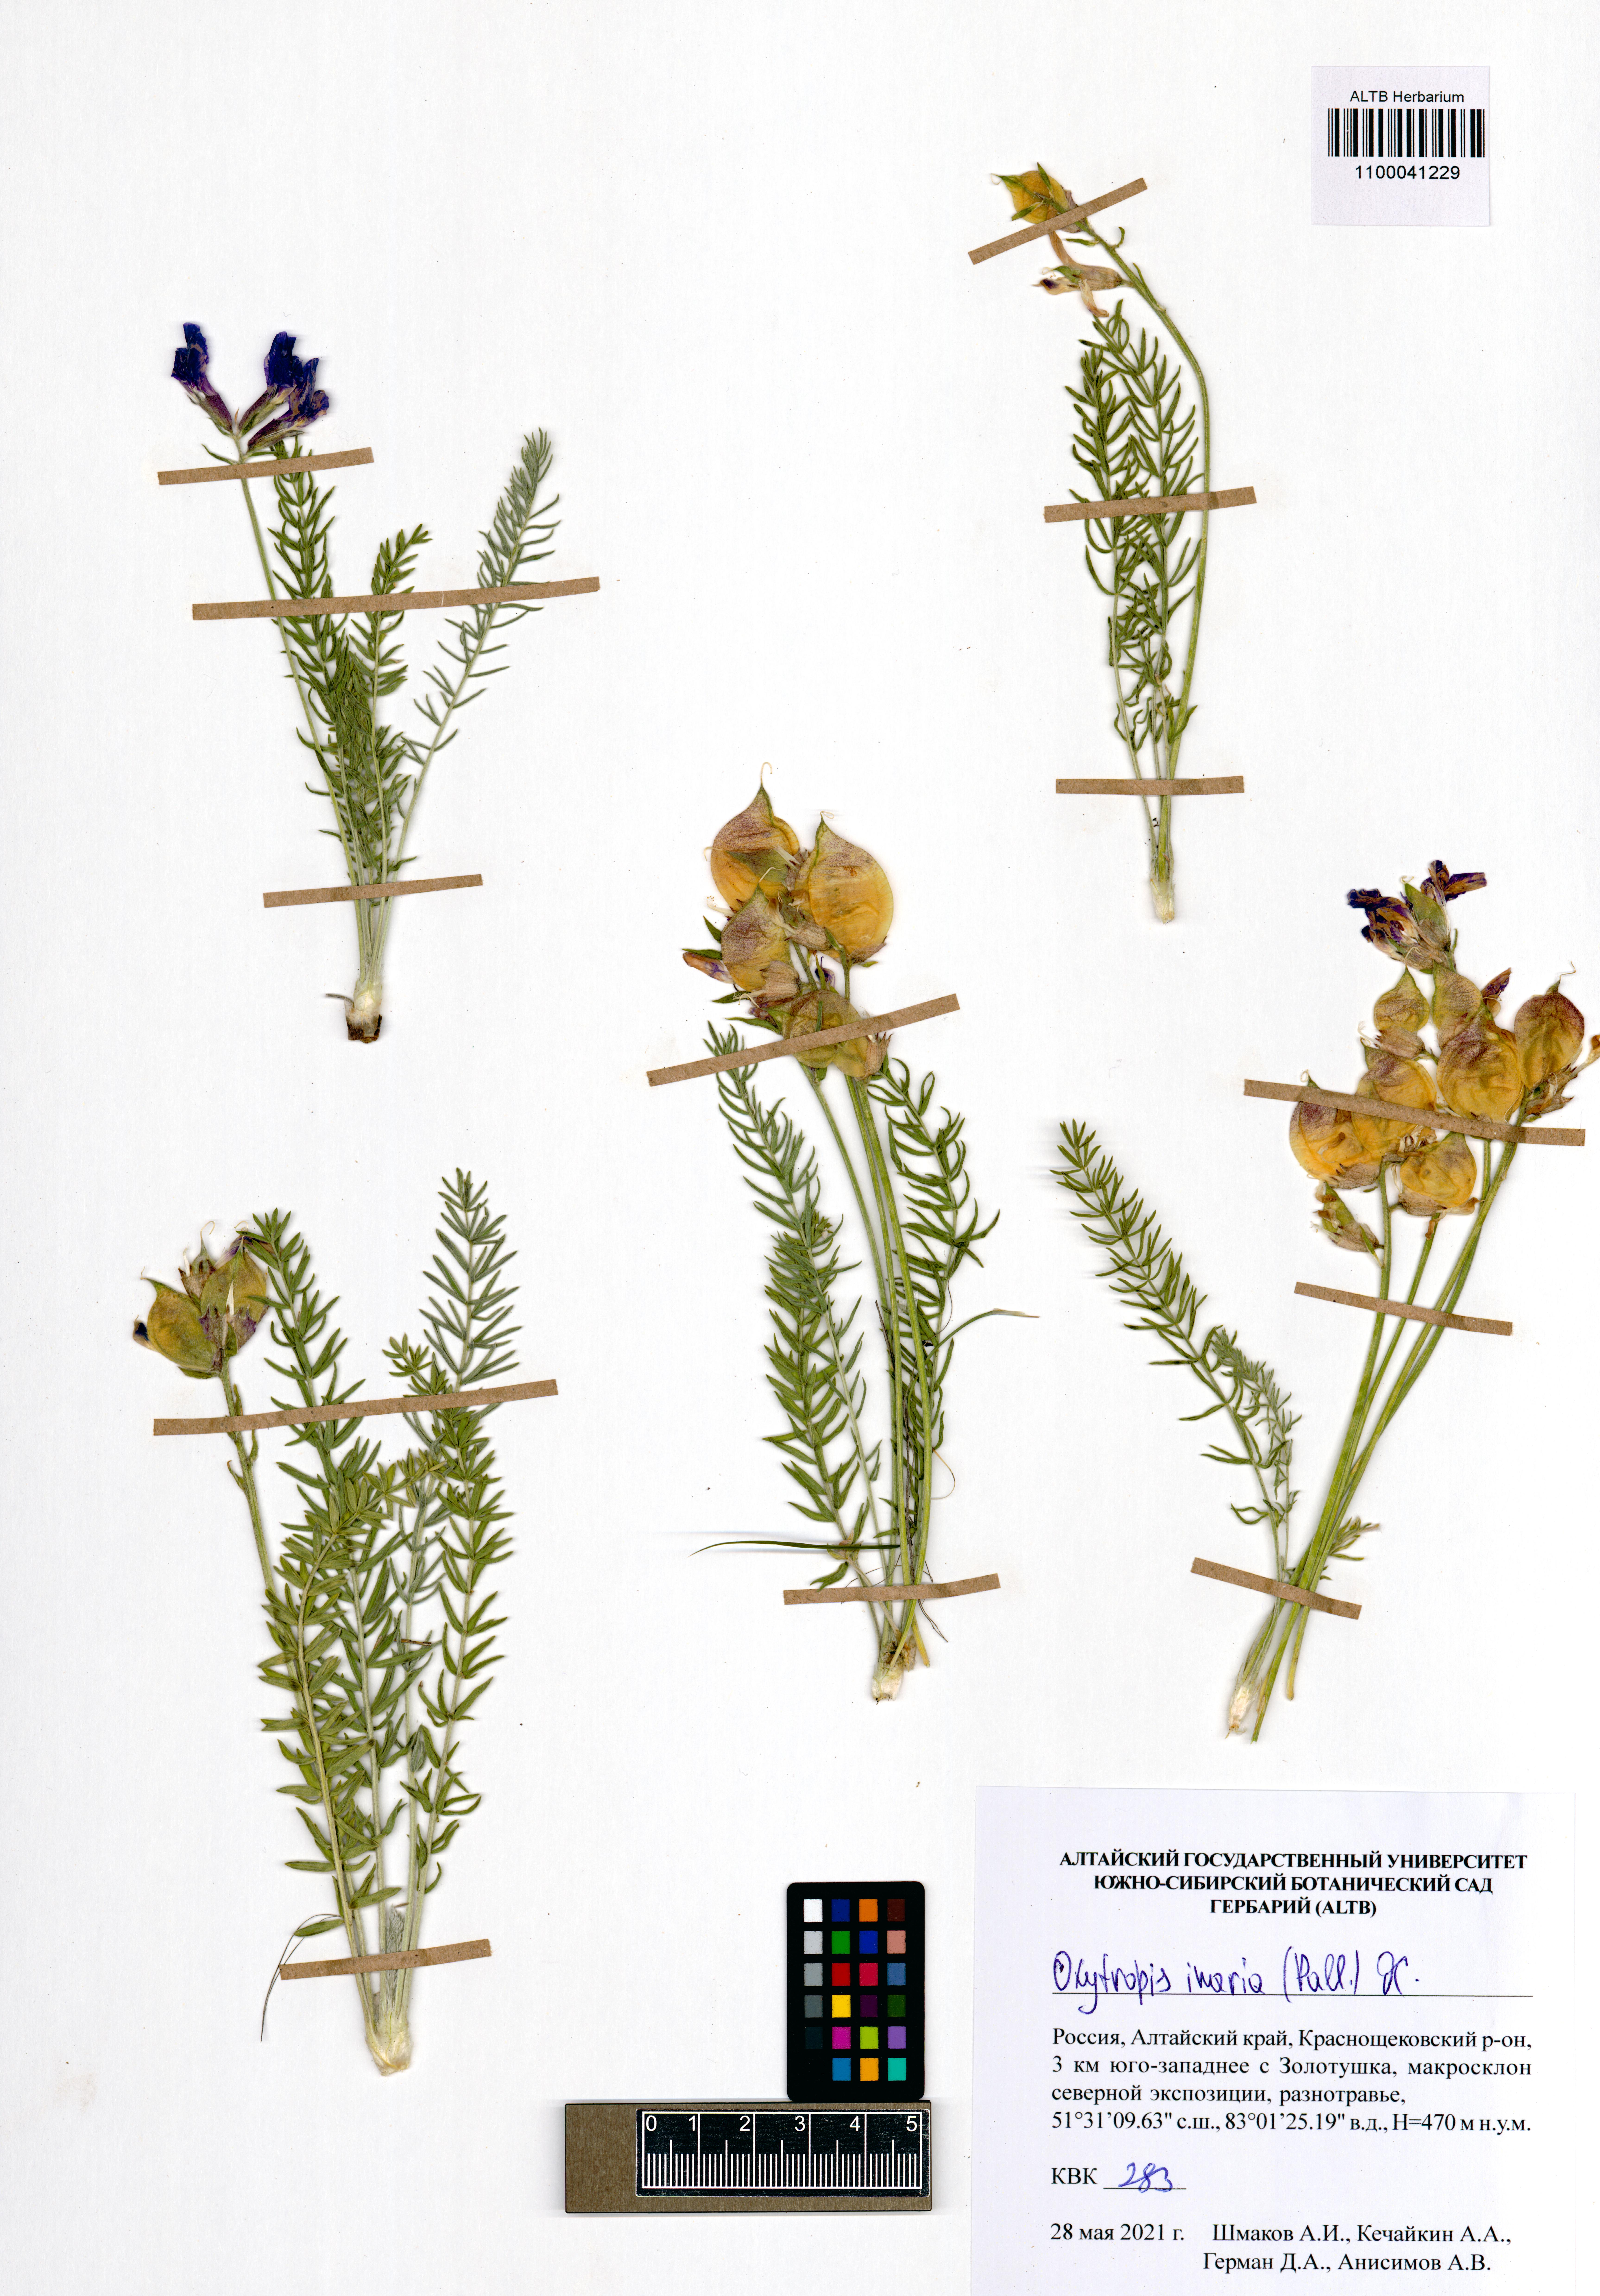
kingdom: Plantae
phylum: Tracheophyta
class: Magnoliopsida
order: Fabales
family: Fabaceae
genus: Oxytropis
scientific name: Oxytropis inaria
